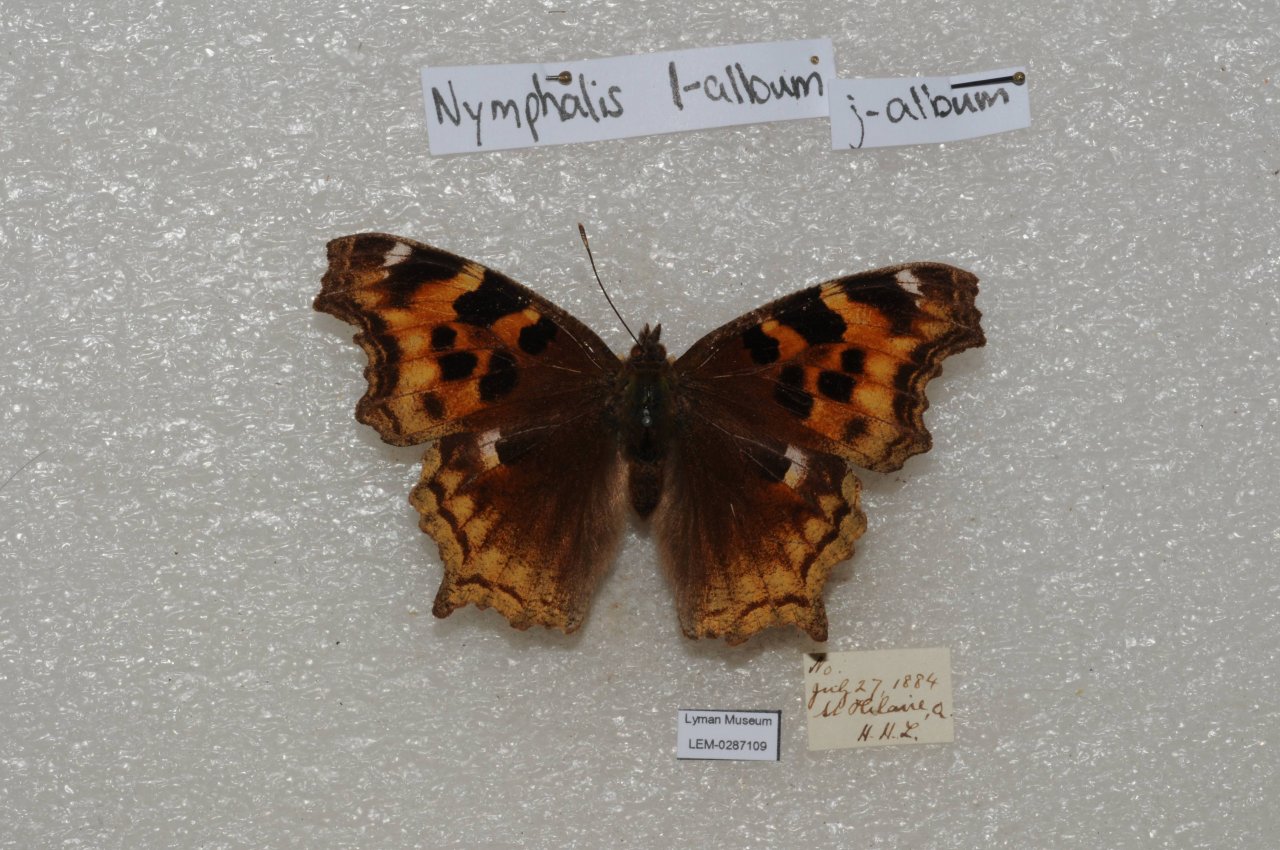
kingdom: Animalia
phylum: Arthropoda
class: Insecta
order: Lepidoptera
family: Nymphalidae
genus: Polygonia
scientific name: Polygonia vaualbum
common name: Compton Tortoiseshell
